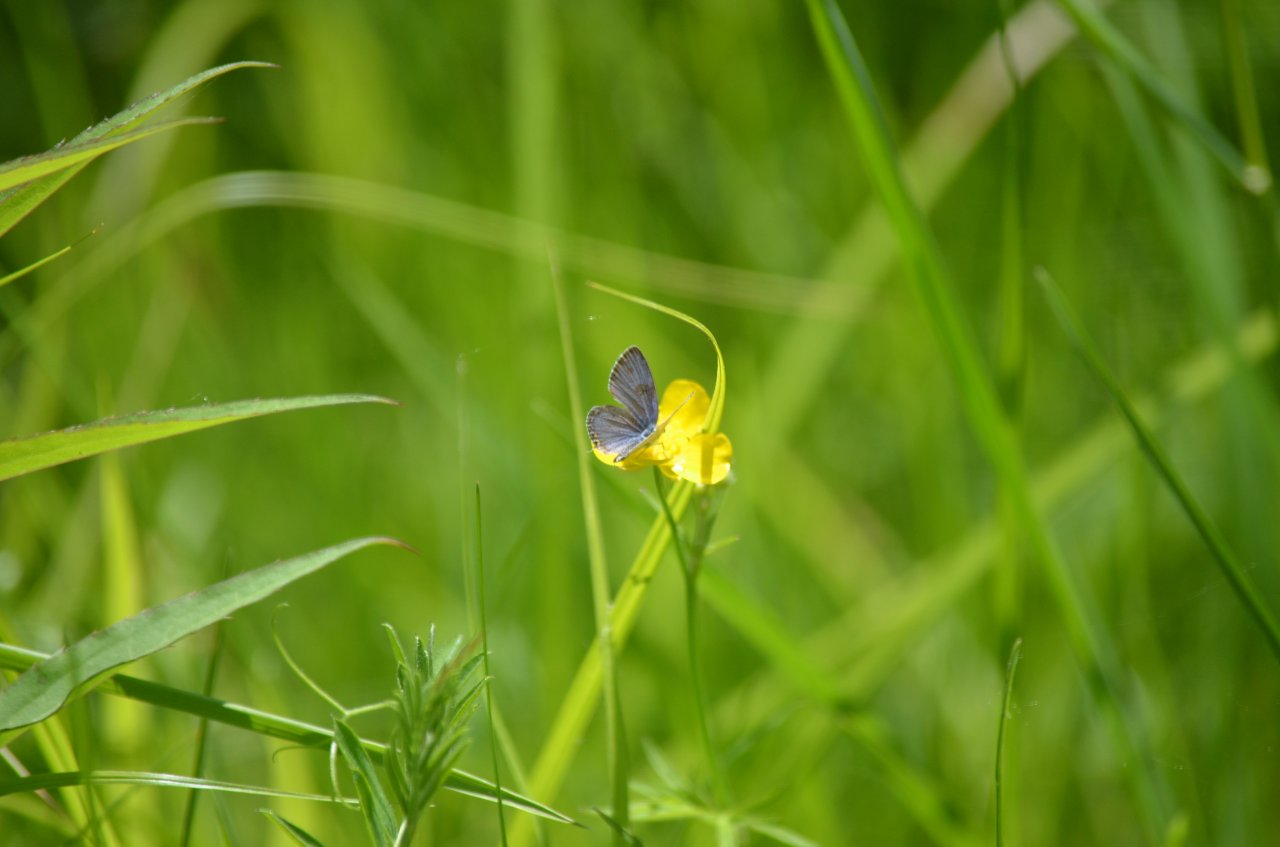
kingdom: Animalia
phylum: Arthropoda
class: Insecta
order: Lepidoptera
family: Lycaenidae
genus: Elkalyce
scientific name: Elkalyce comyntas
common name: Eastern Tailed-Blue
